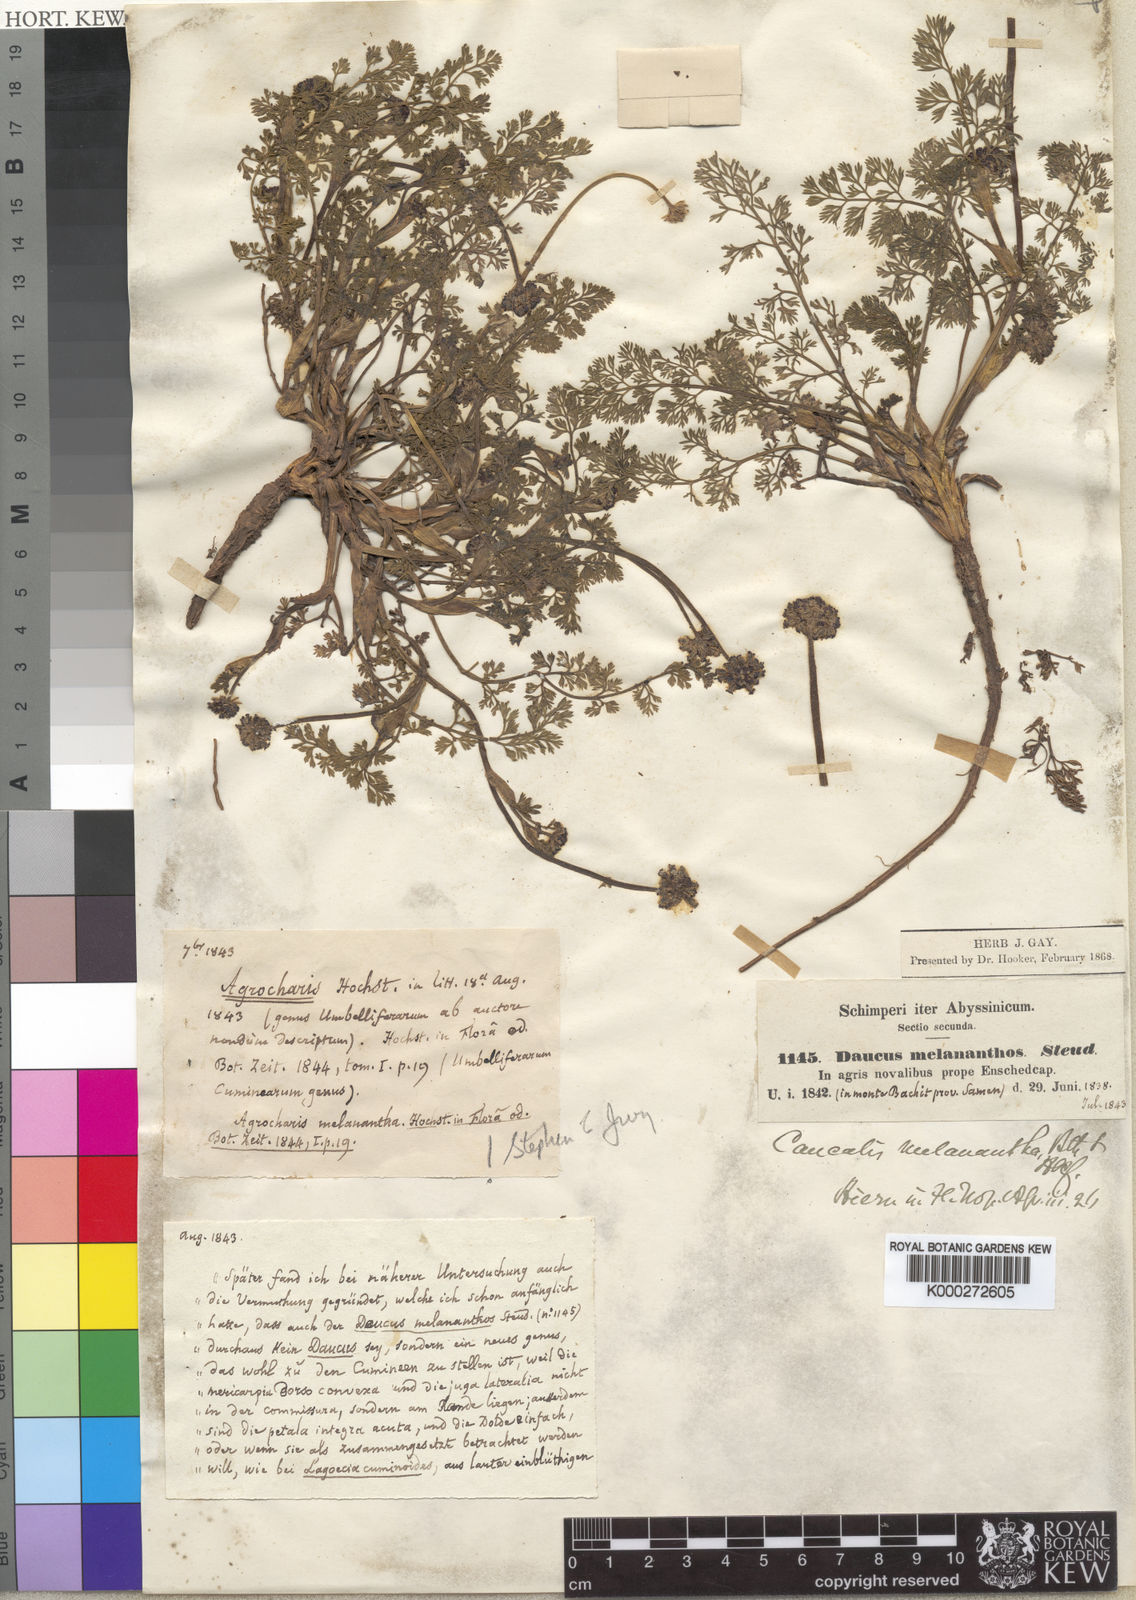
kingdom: Plantae
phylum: Tracheophyta
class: Magnoliopsida
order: Apiales
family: Apiaceae
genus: Daucus
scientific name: Daucus melananthus
